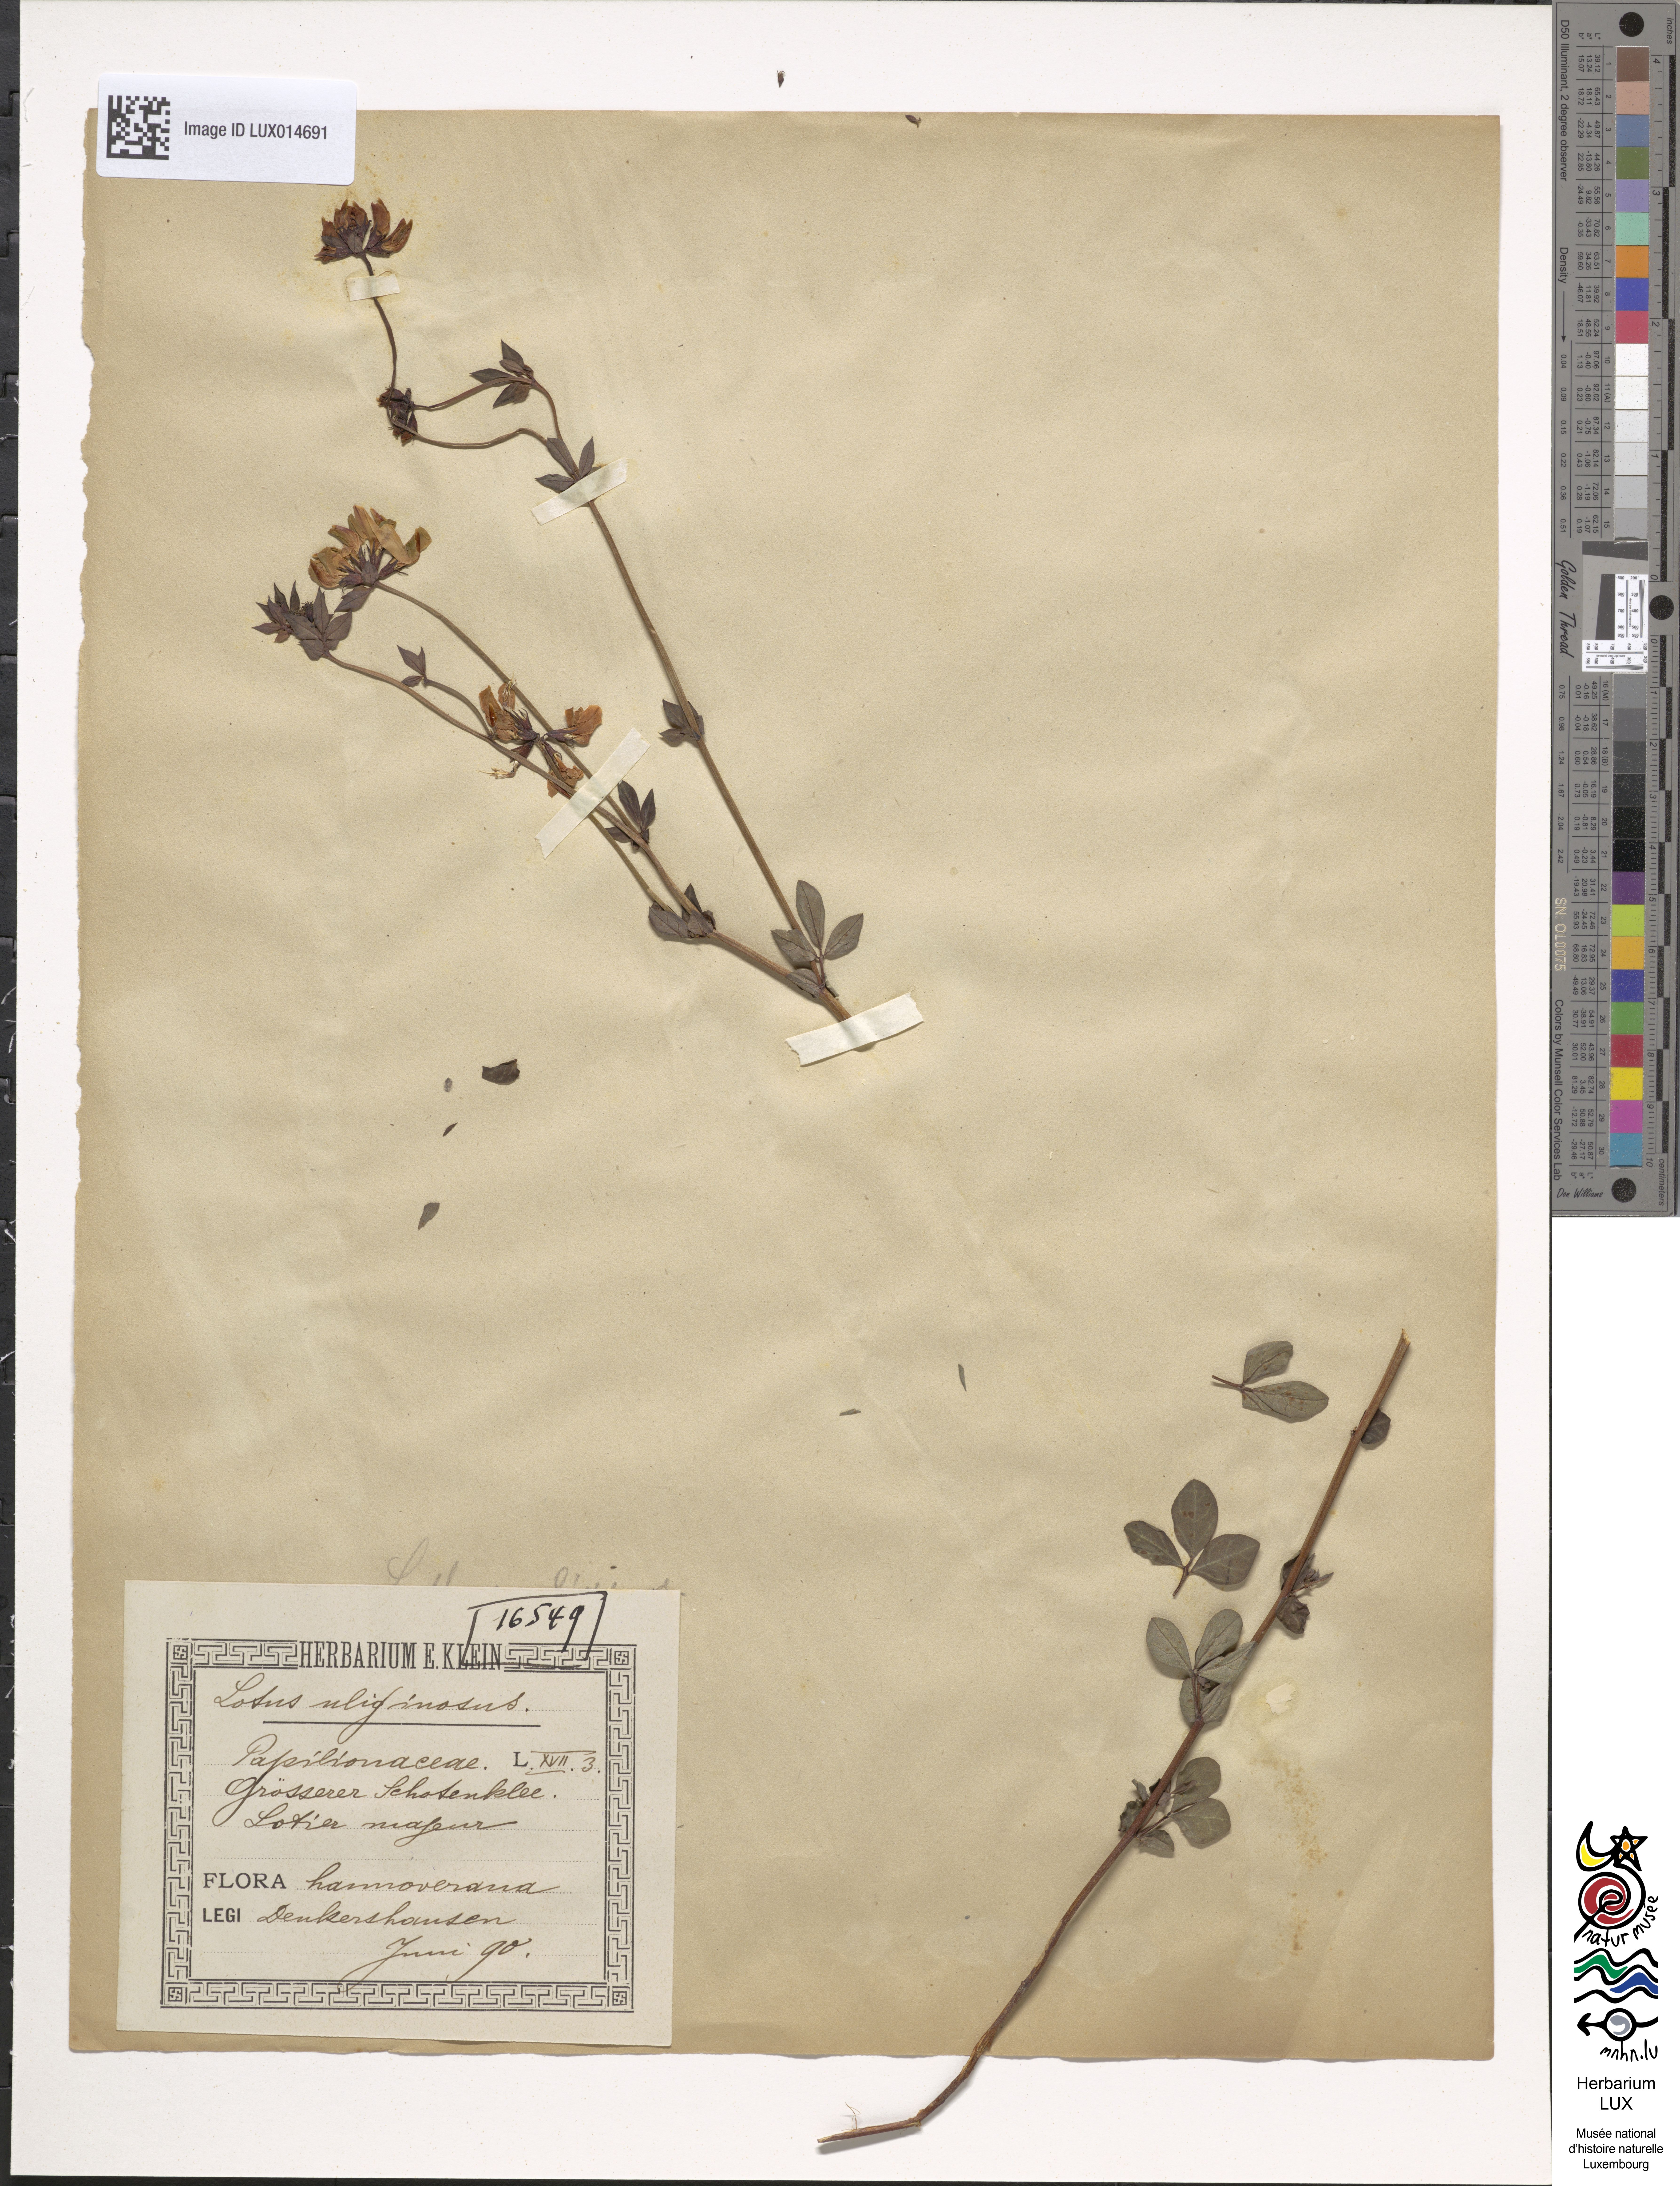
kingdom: Plantae
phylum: Tracheophyta
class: Magnoliopsida
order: Fabales
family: Fabaceae
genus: Lotus
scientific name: Lotus pedunculatus
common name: Greater birdsfoot-trefoil
